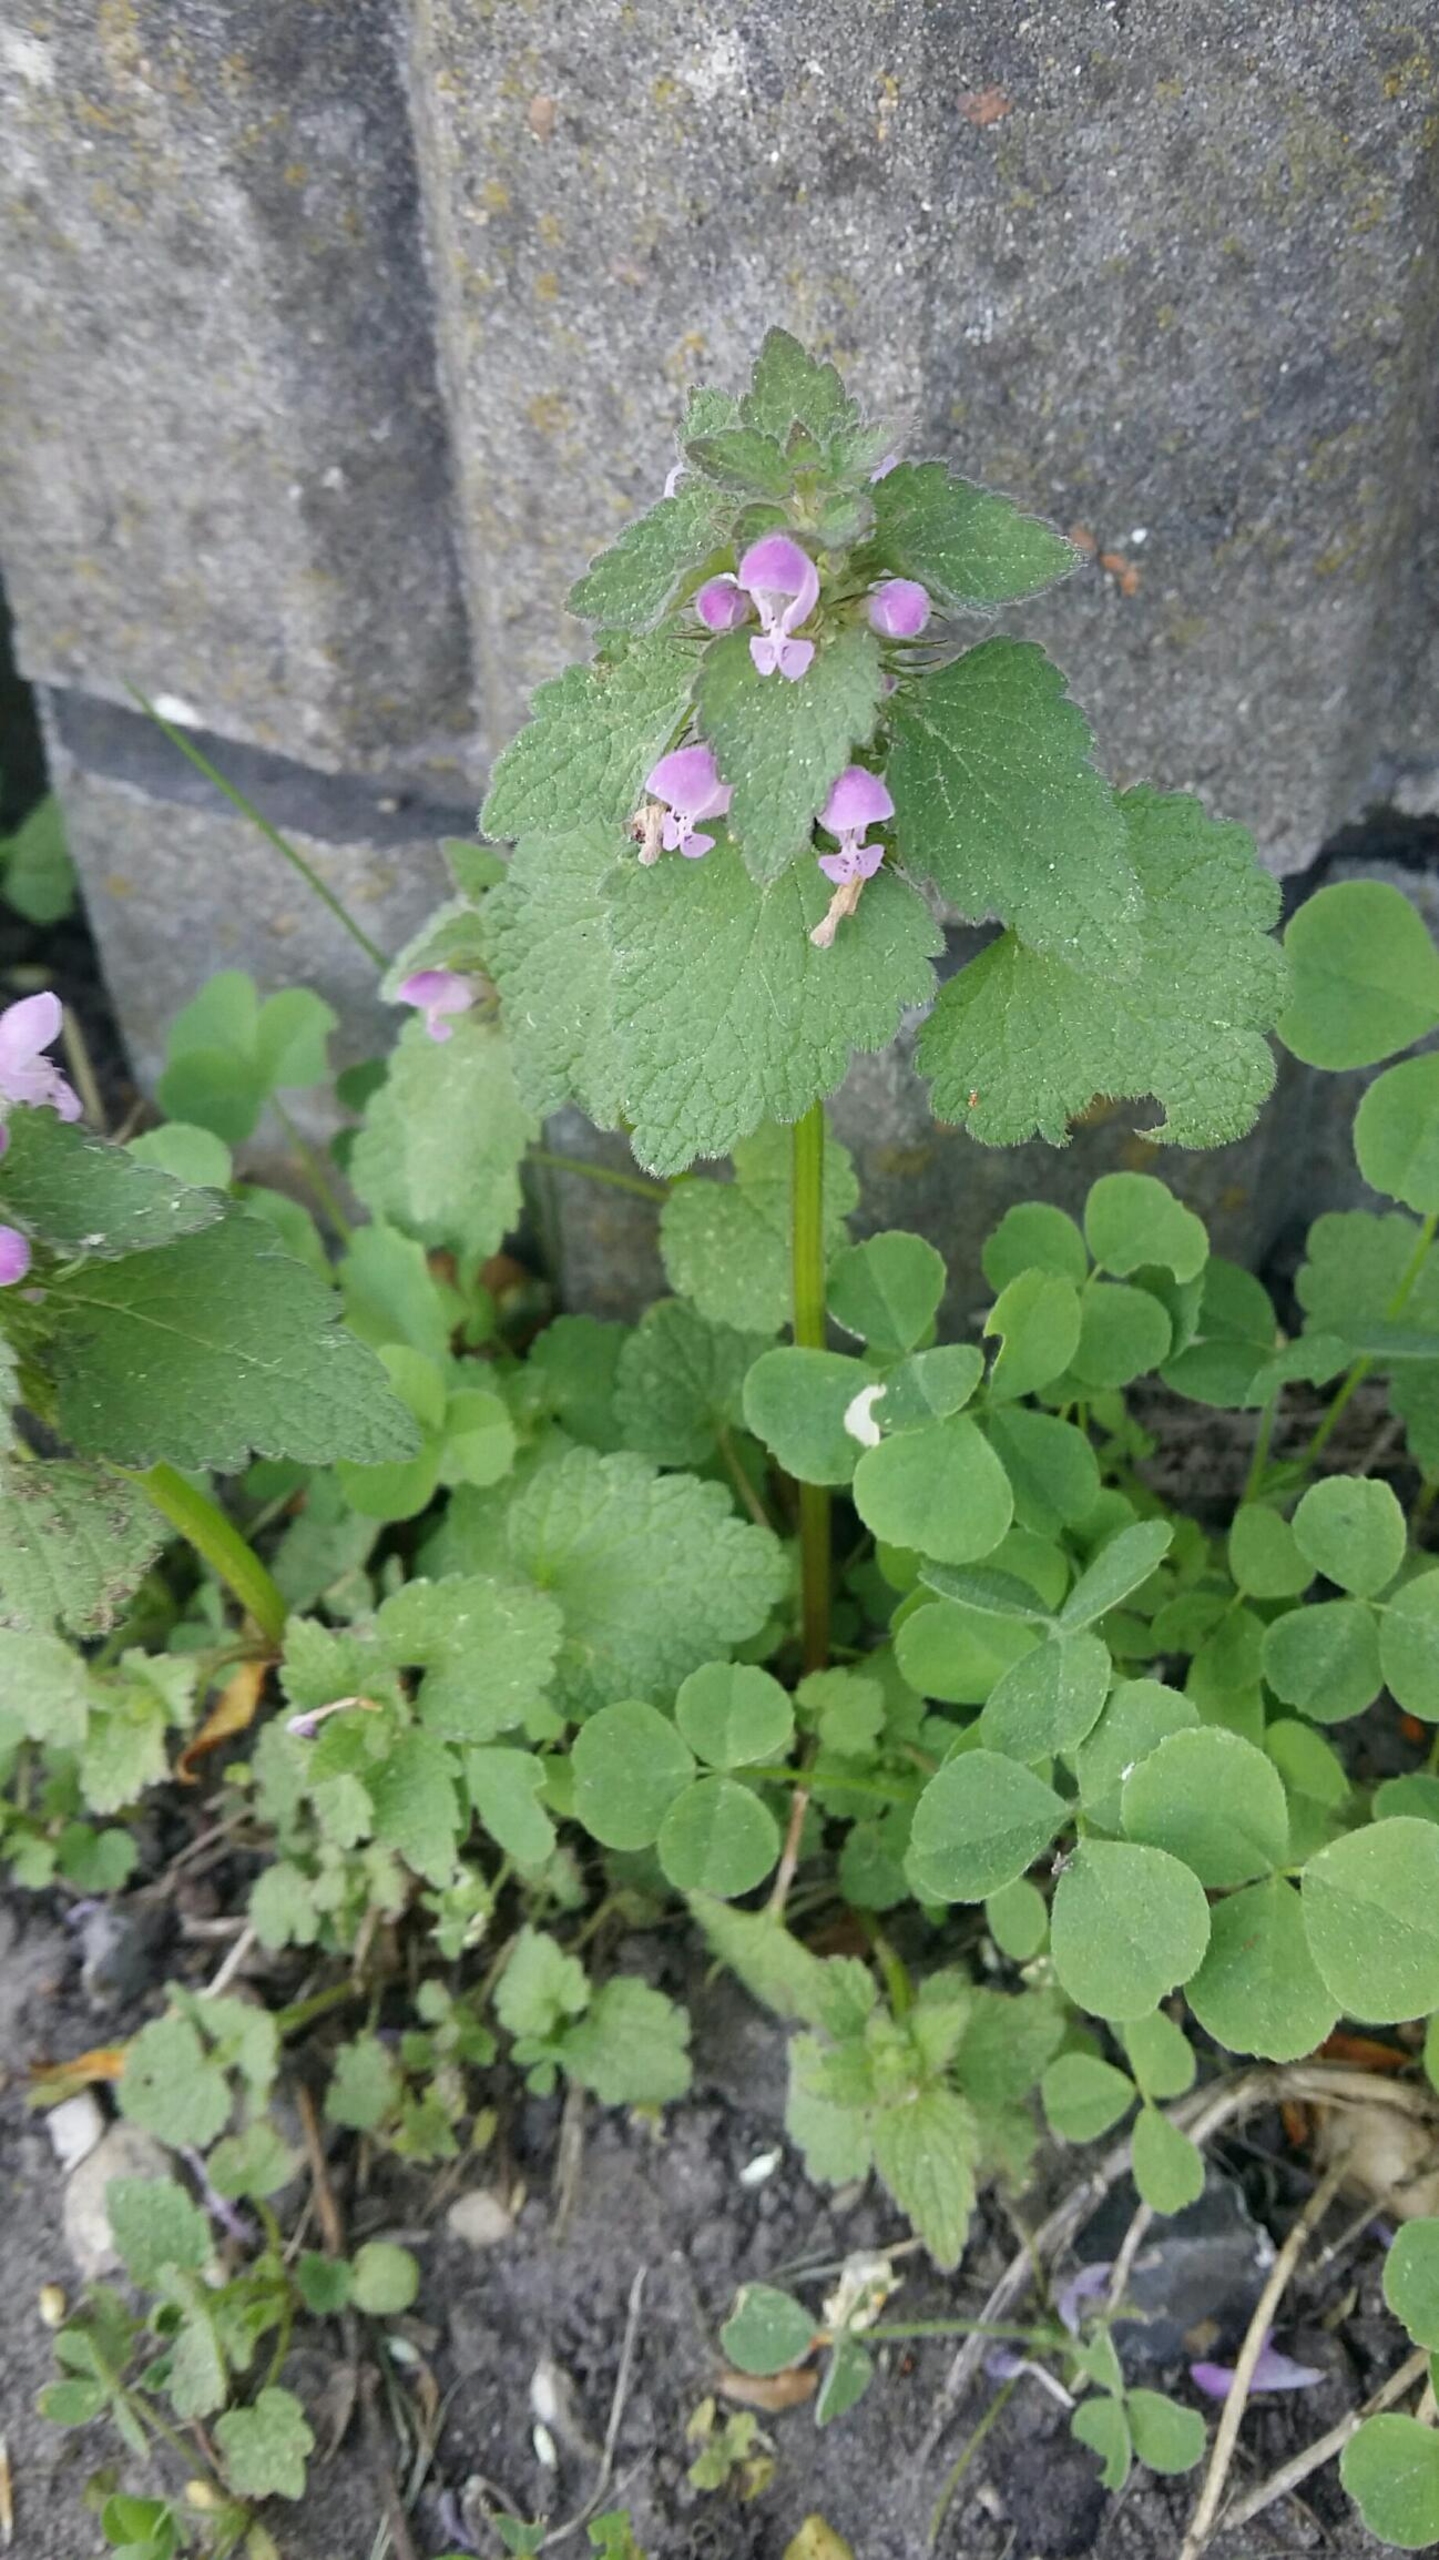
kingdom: Plantae
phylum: Tracheophyta
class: Magnoliopsida
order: Lamiales
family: Lamiaceae
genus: Lamium
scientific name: Lamium purpureum
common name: Rød tvetand
